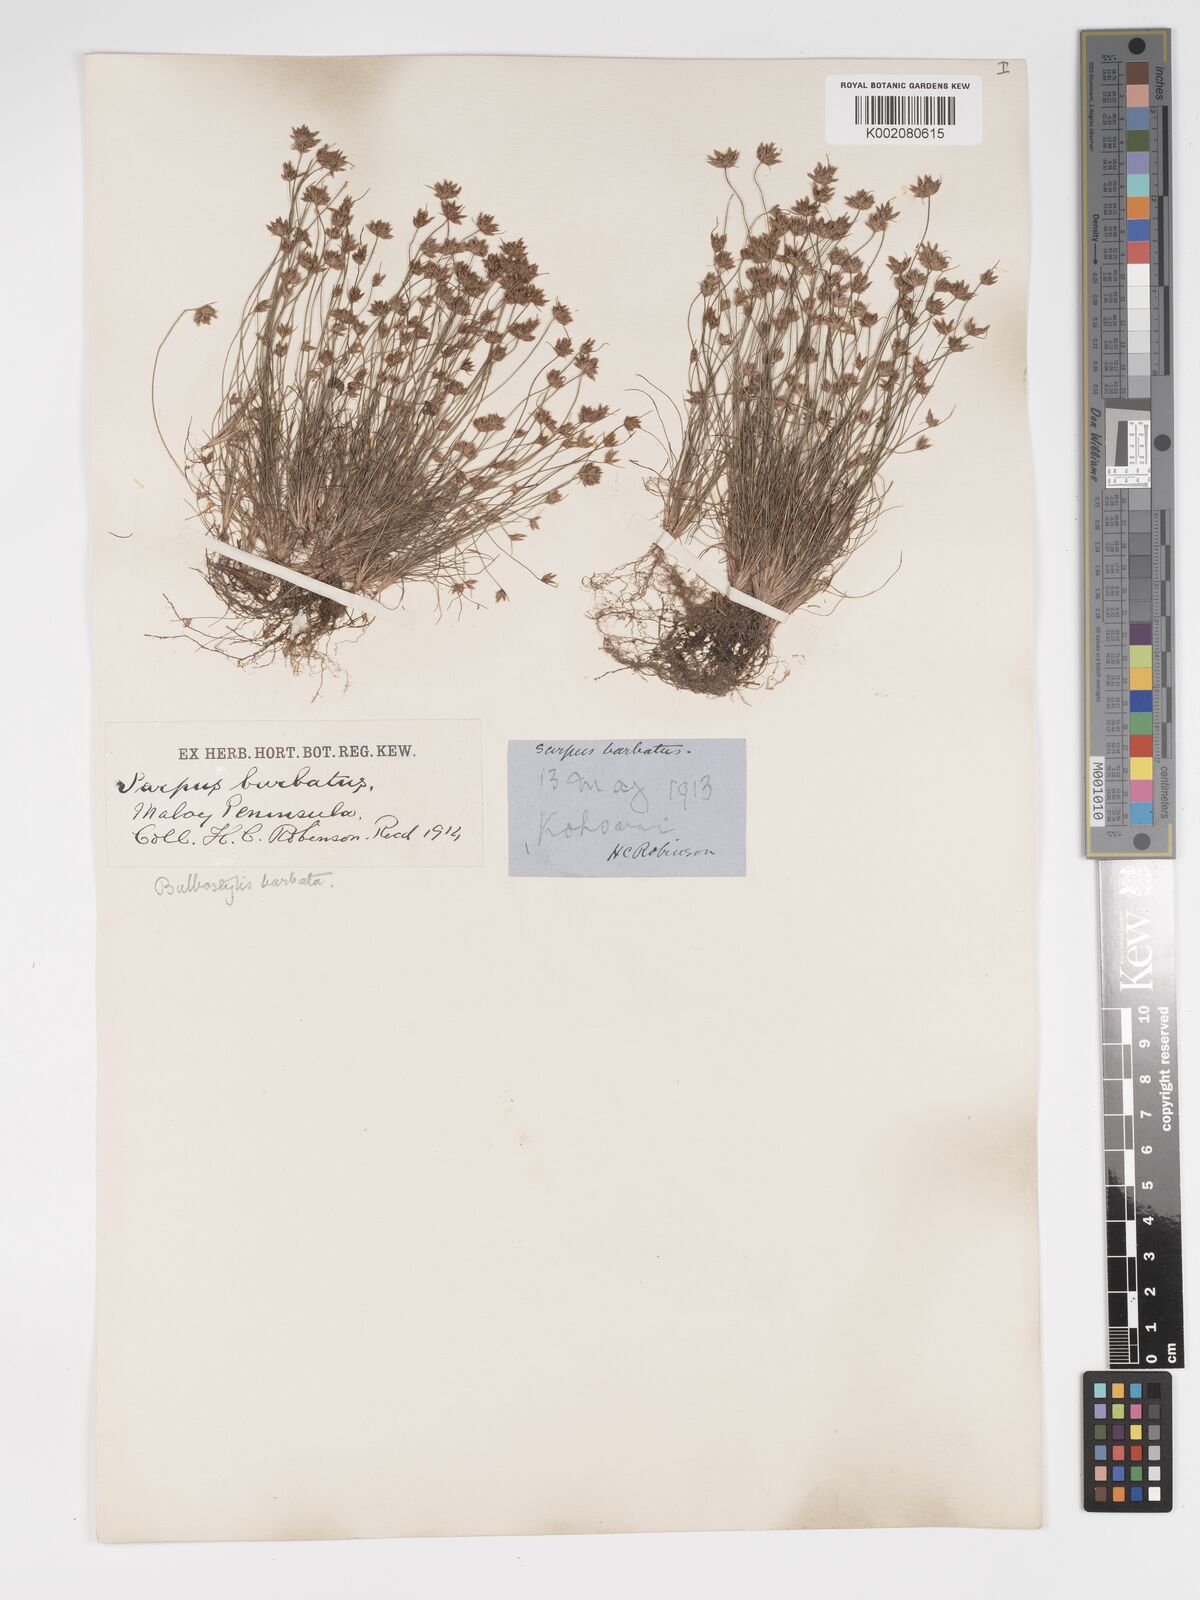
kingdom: Plantae
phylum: Tracheophyta
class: Liliopsida
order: Poales
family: Cyperaceae
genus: Bulbostylis
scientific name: Bulbostylis barbata
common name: Watergrass
